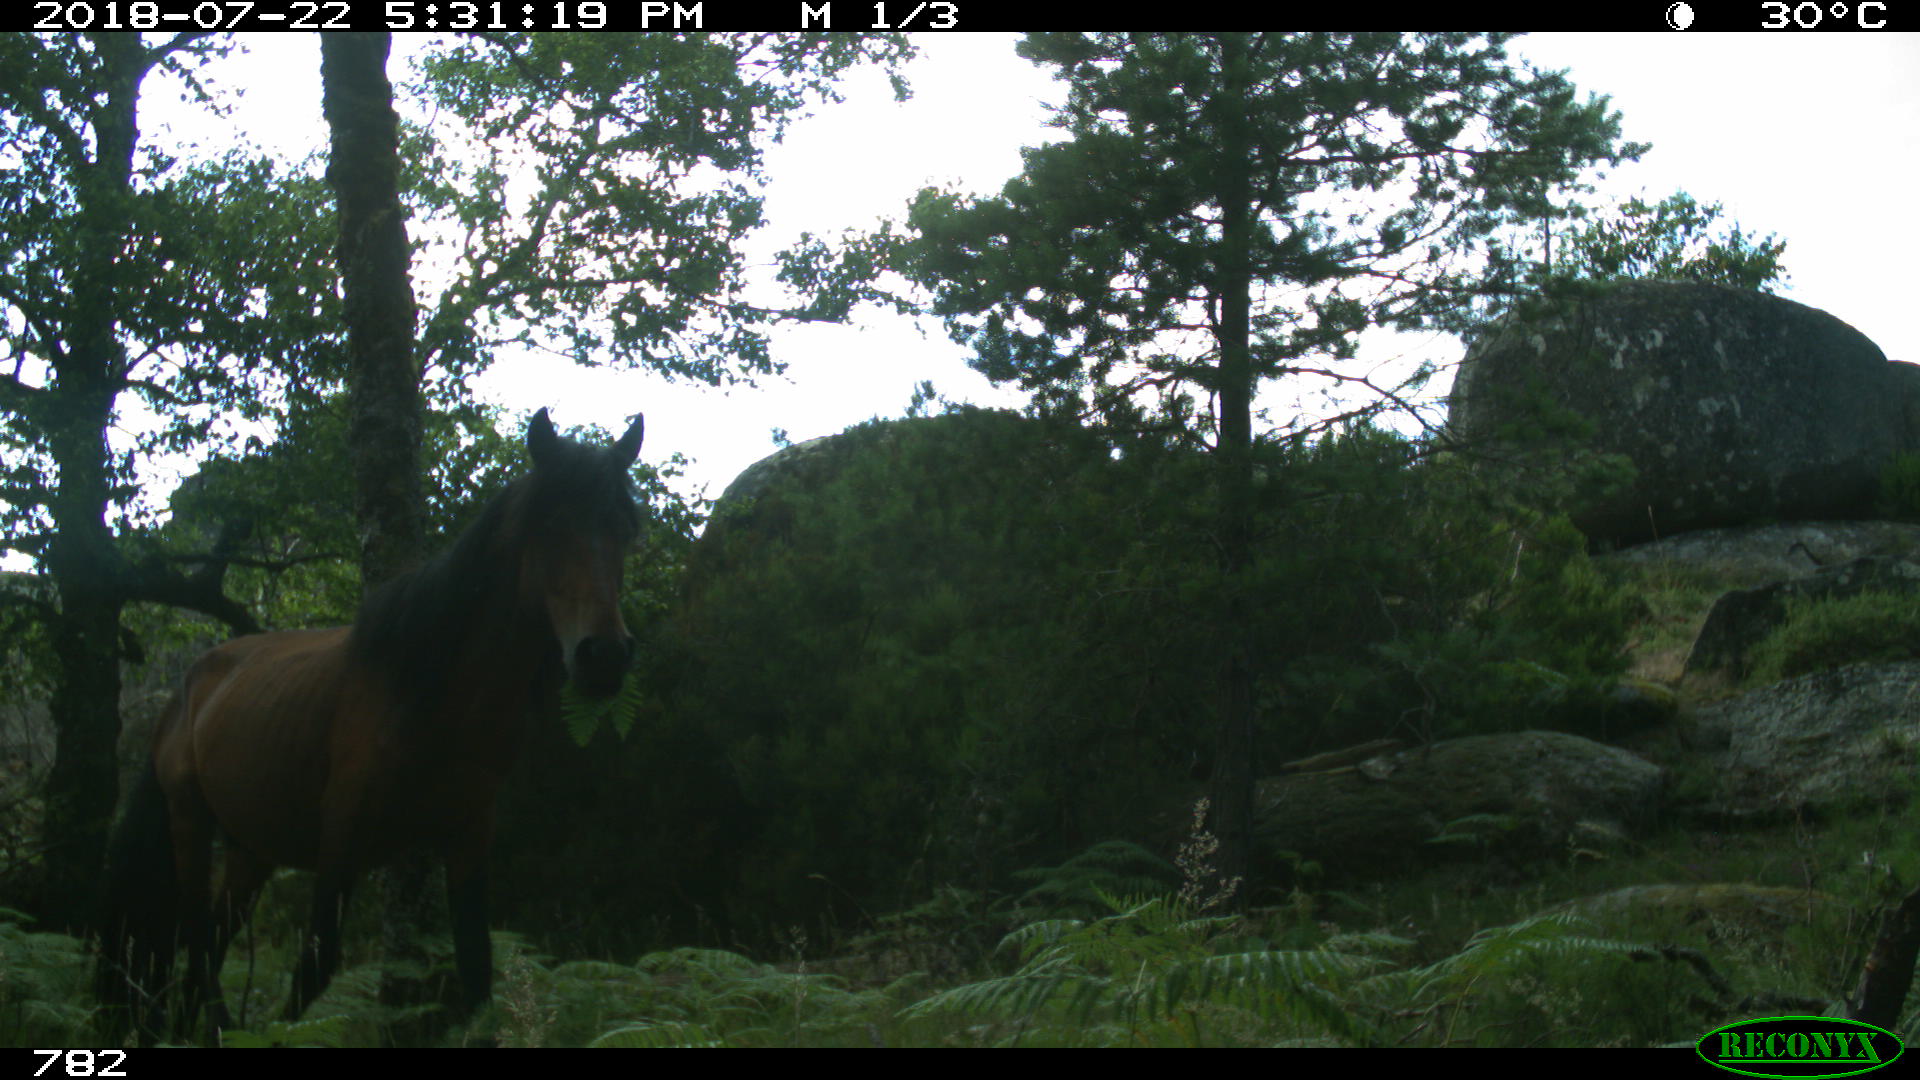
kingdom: Animalia
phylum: Chordata
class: Mammalia
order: Perissodactyla
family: Equidae
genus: Equus
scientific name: Equus caballus
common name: Horse
